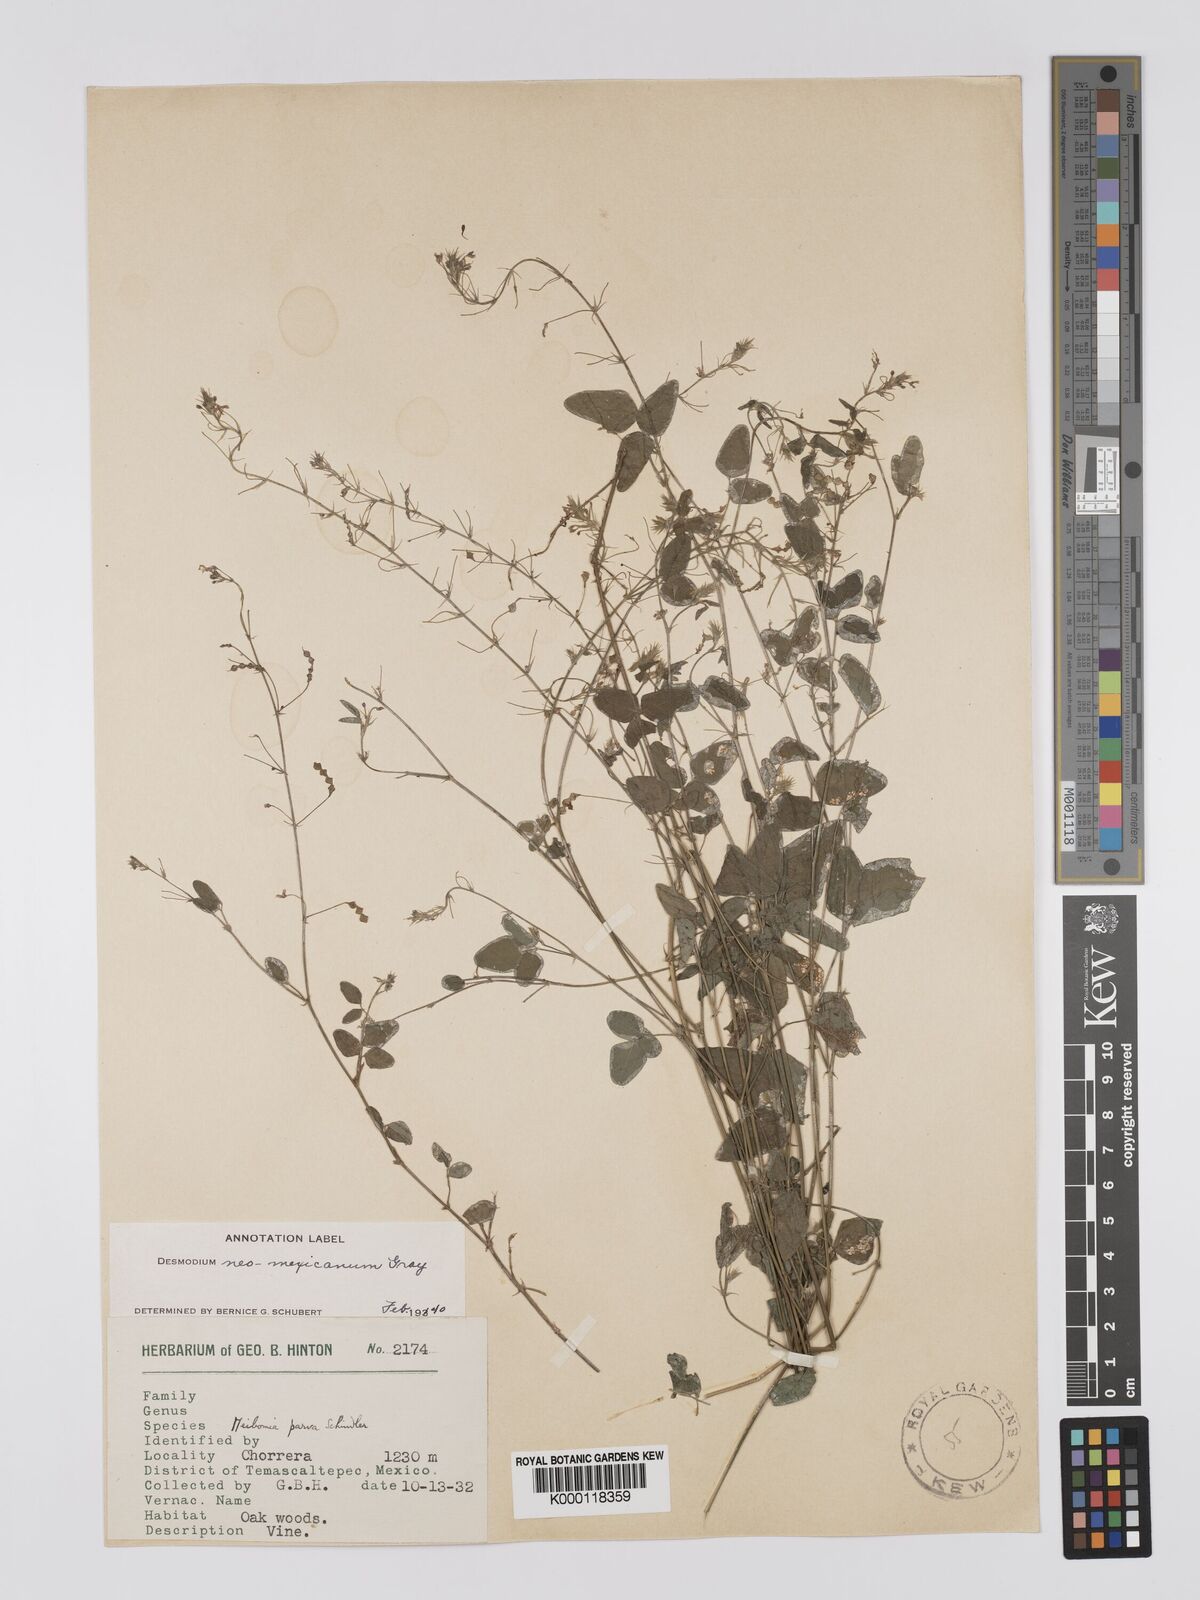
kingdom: Plantae
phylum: Tracheophyta
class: Magnoliopsida
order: Fabales
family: Fabaceae
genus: Desmodium
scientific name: Desmodium procumbens
